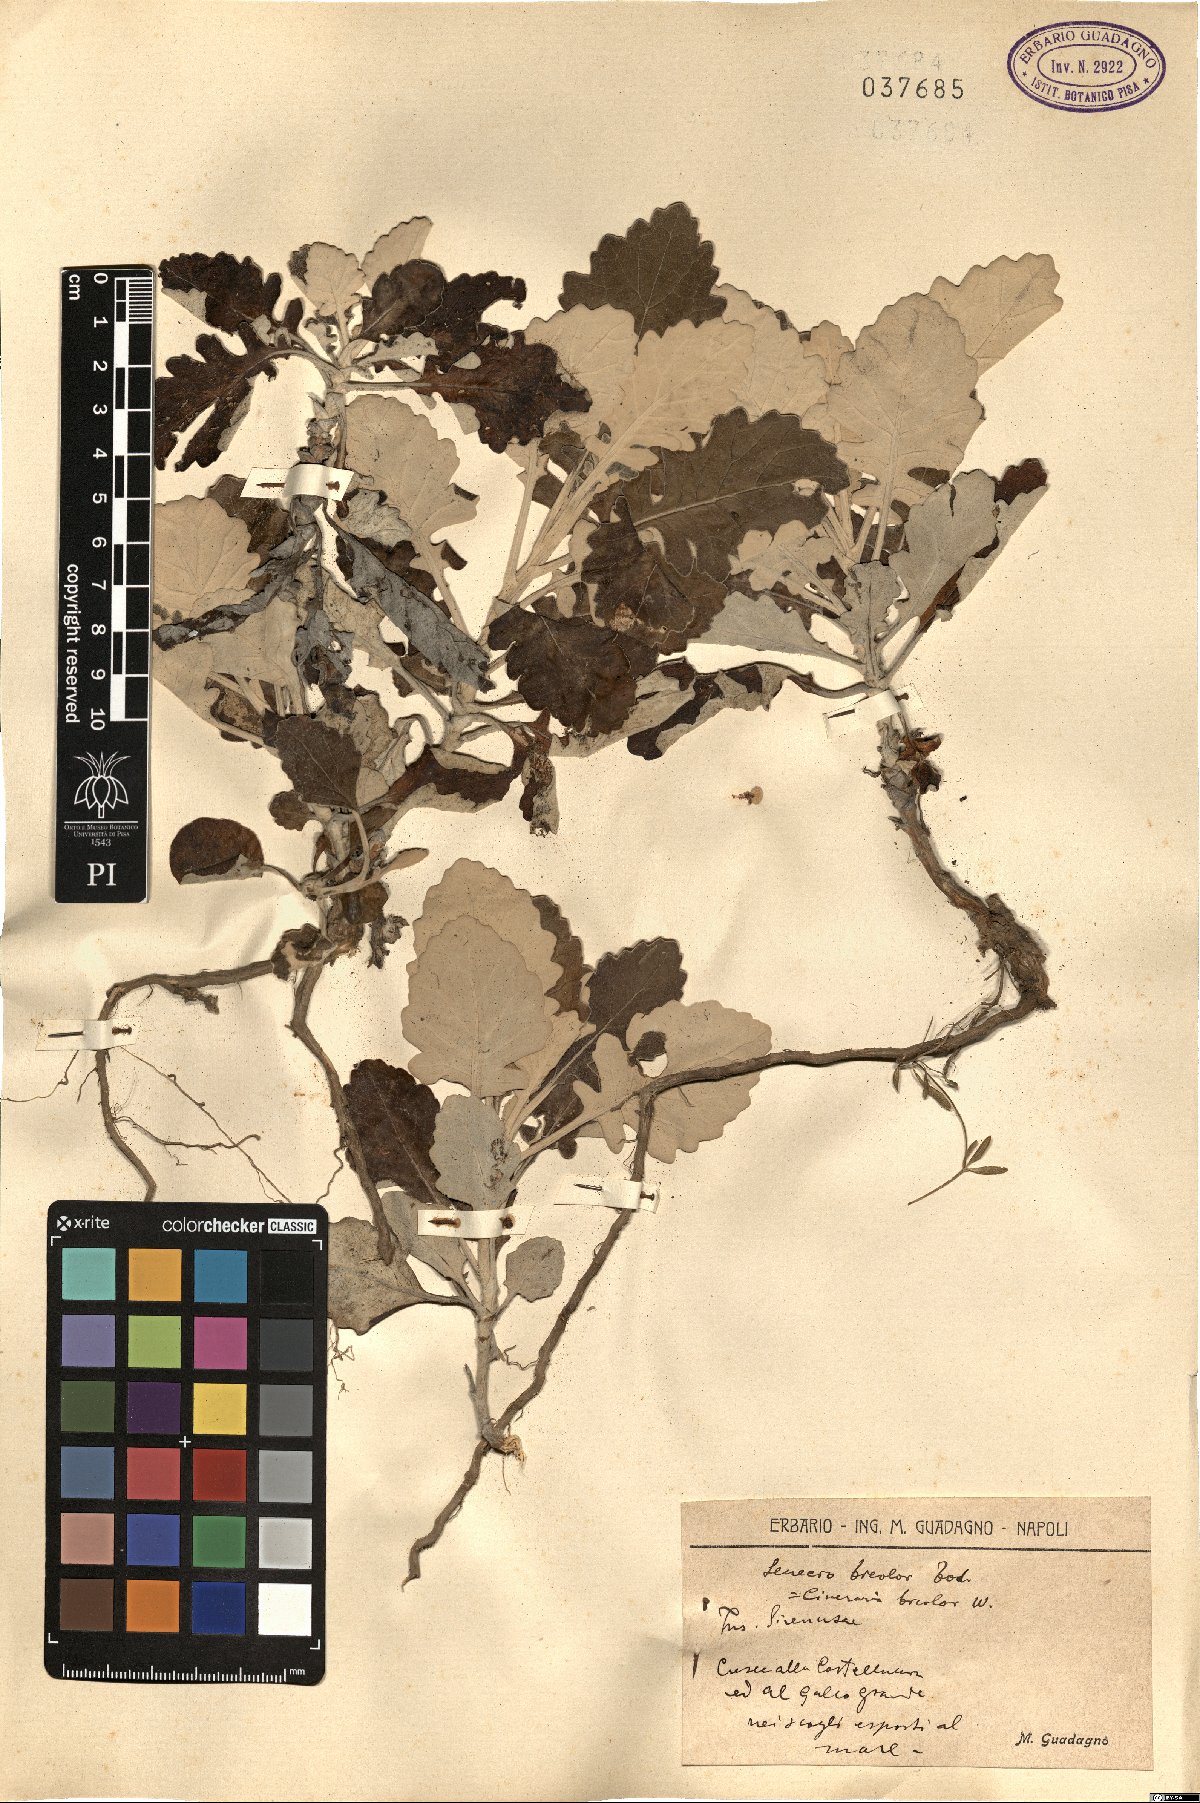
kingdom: Plantae
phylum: Tracheophyta
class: Magnoliopsida
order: Asterales
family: Asteraceae
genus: Jacobaea
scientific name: Jacobaea maritima
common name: Silver ragwort
